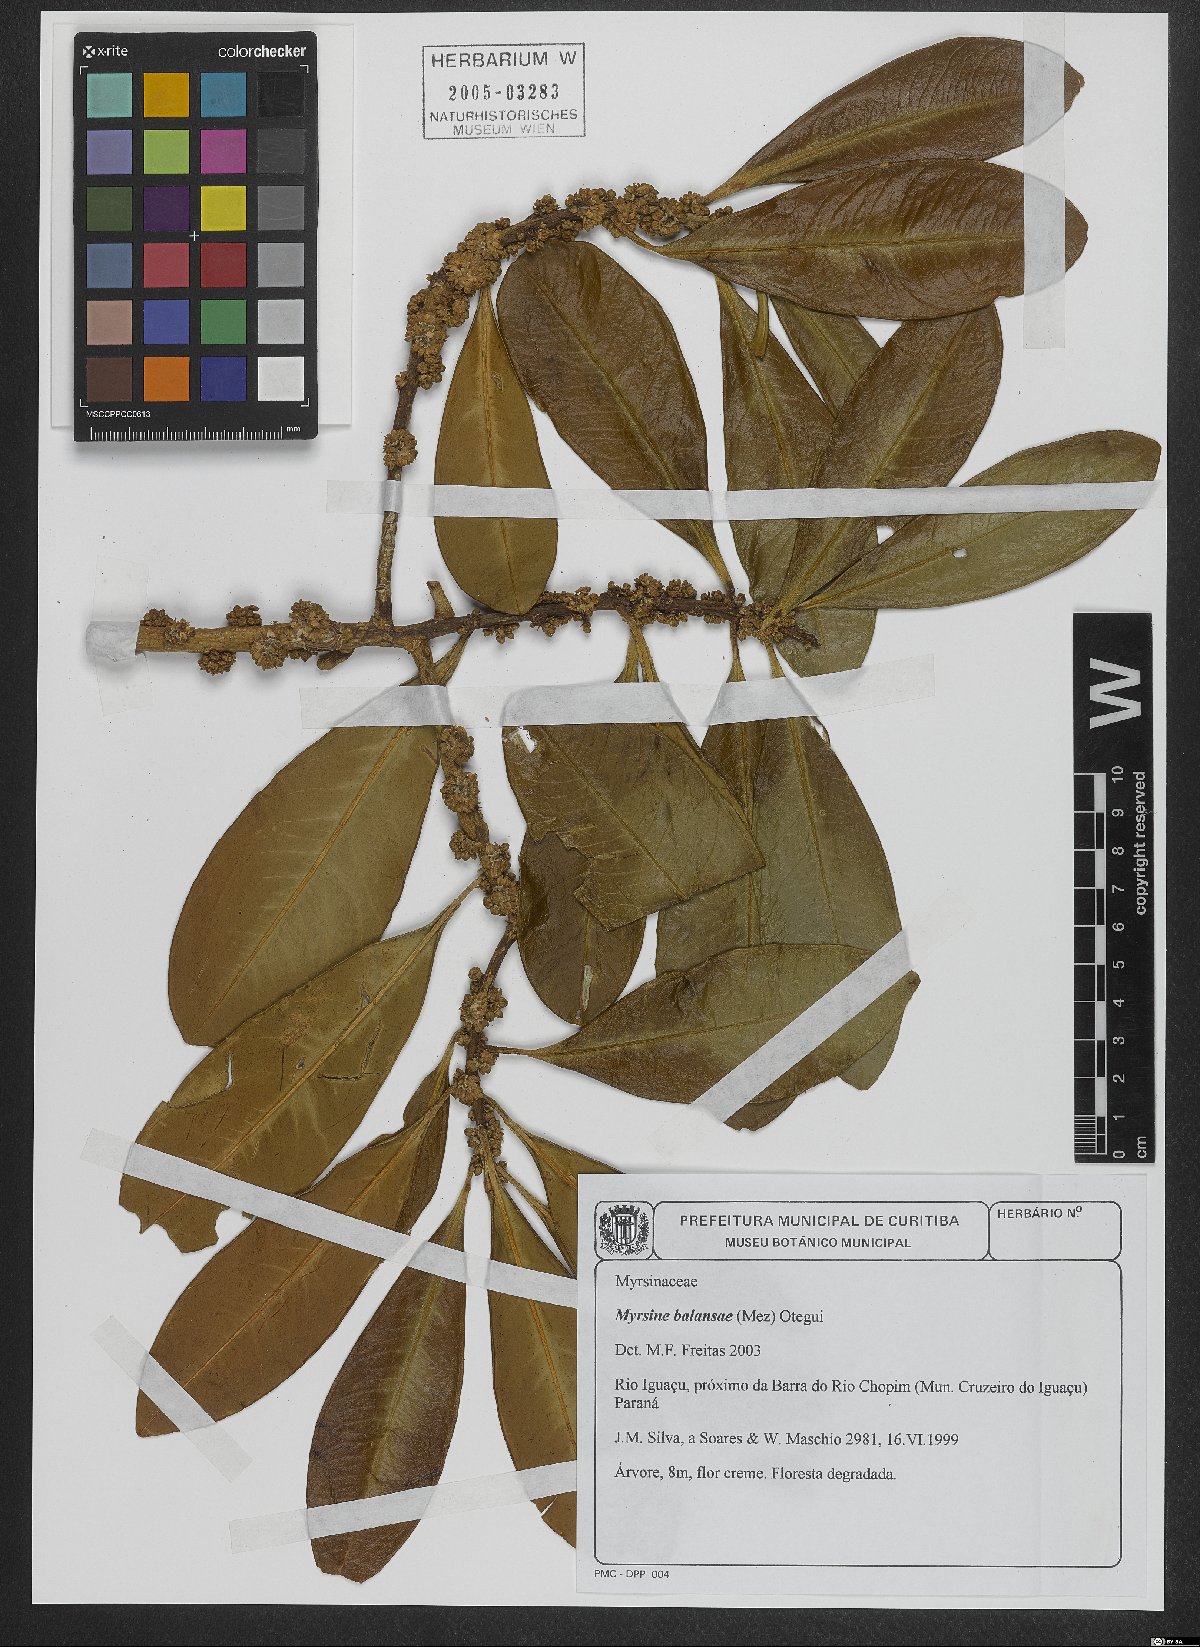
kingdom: Plantae
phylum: Tracheophyta
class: Magnoliopsida
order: Ericales
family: Primulaceae
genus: Myrsine
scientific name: Myrsine balansae
